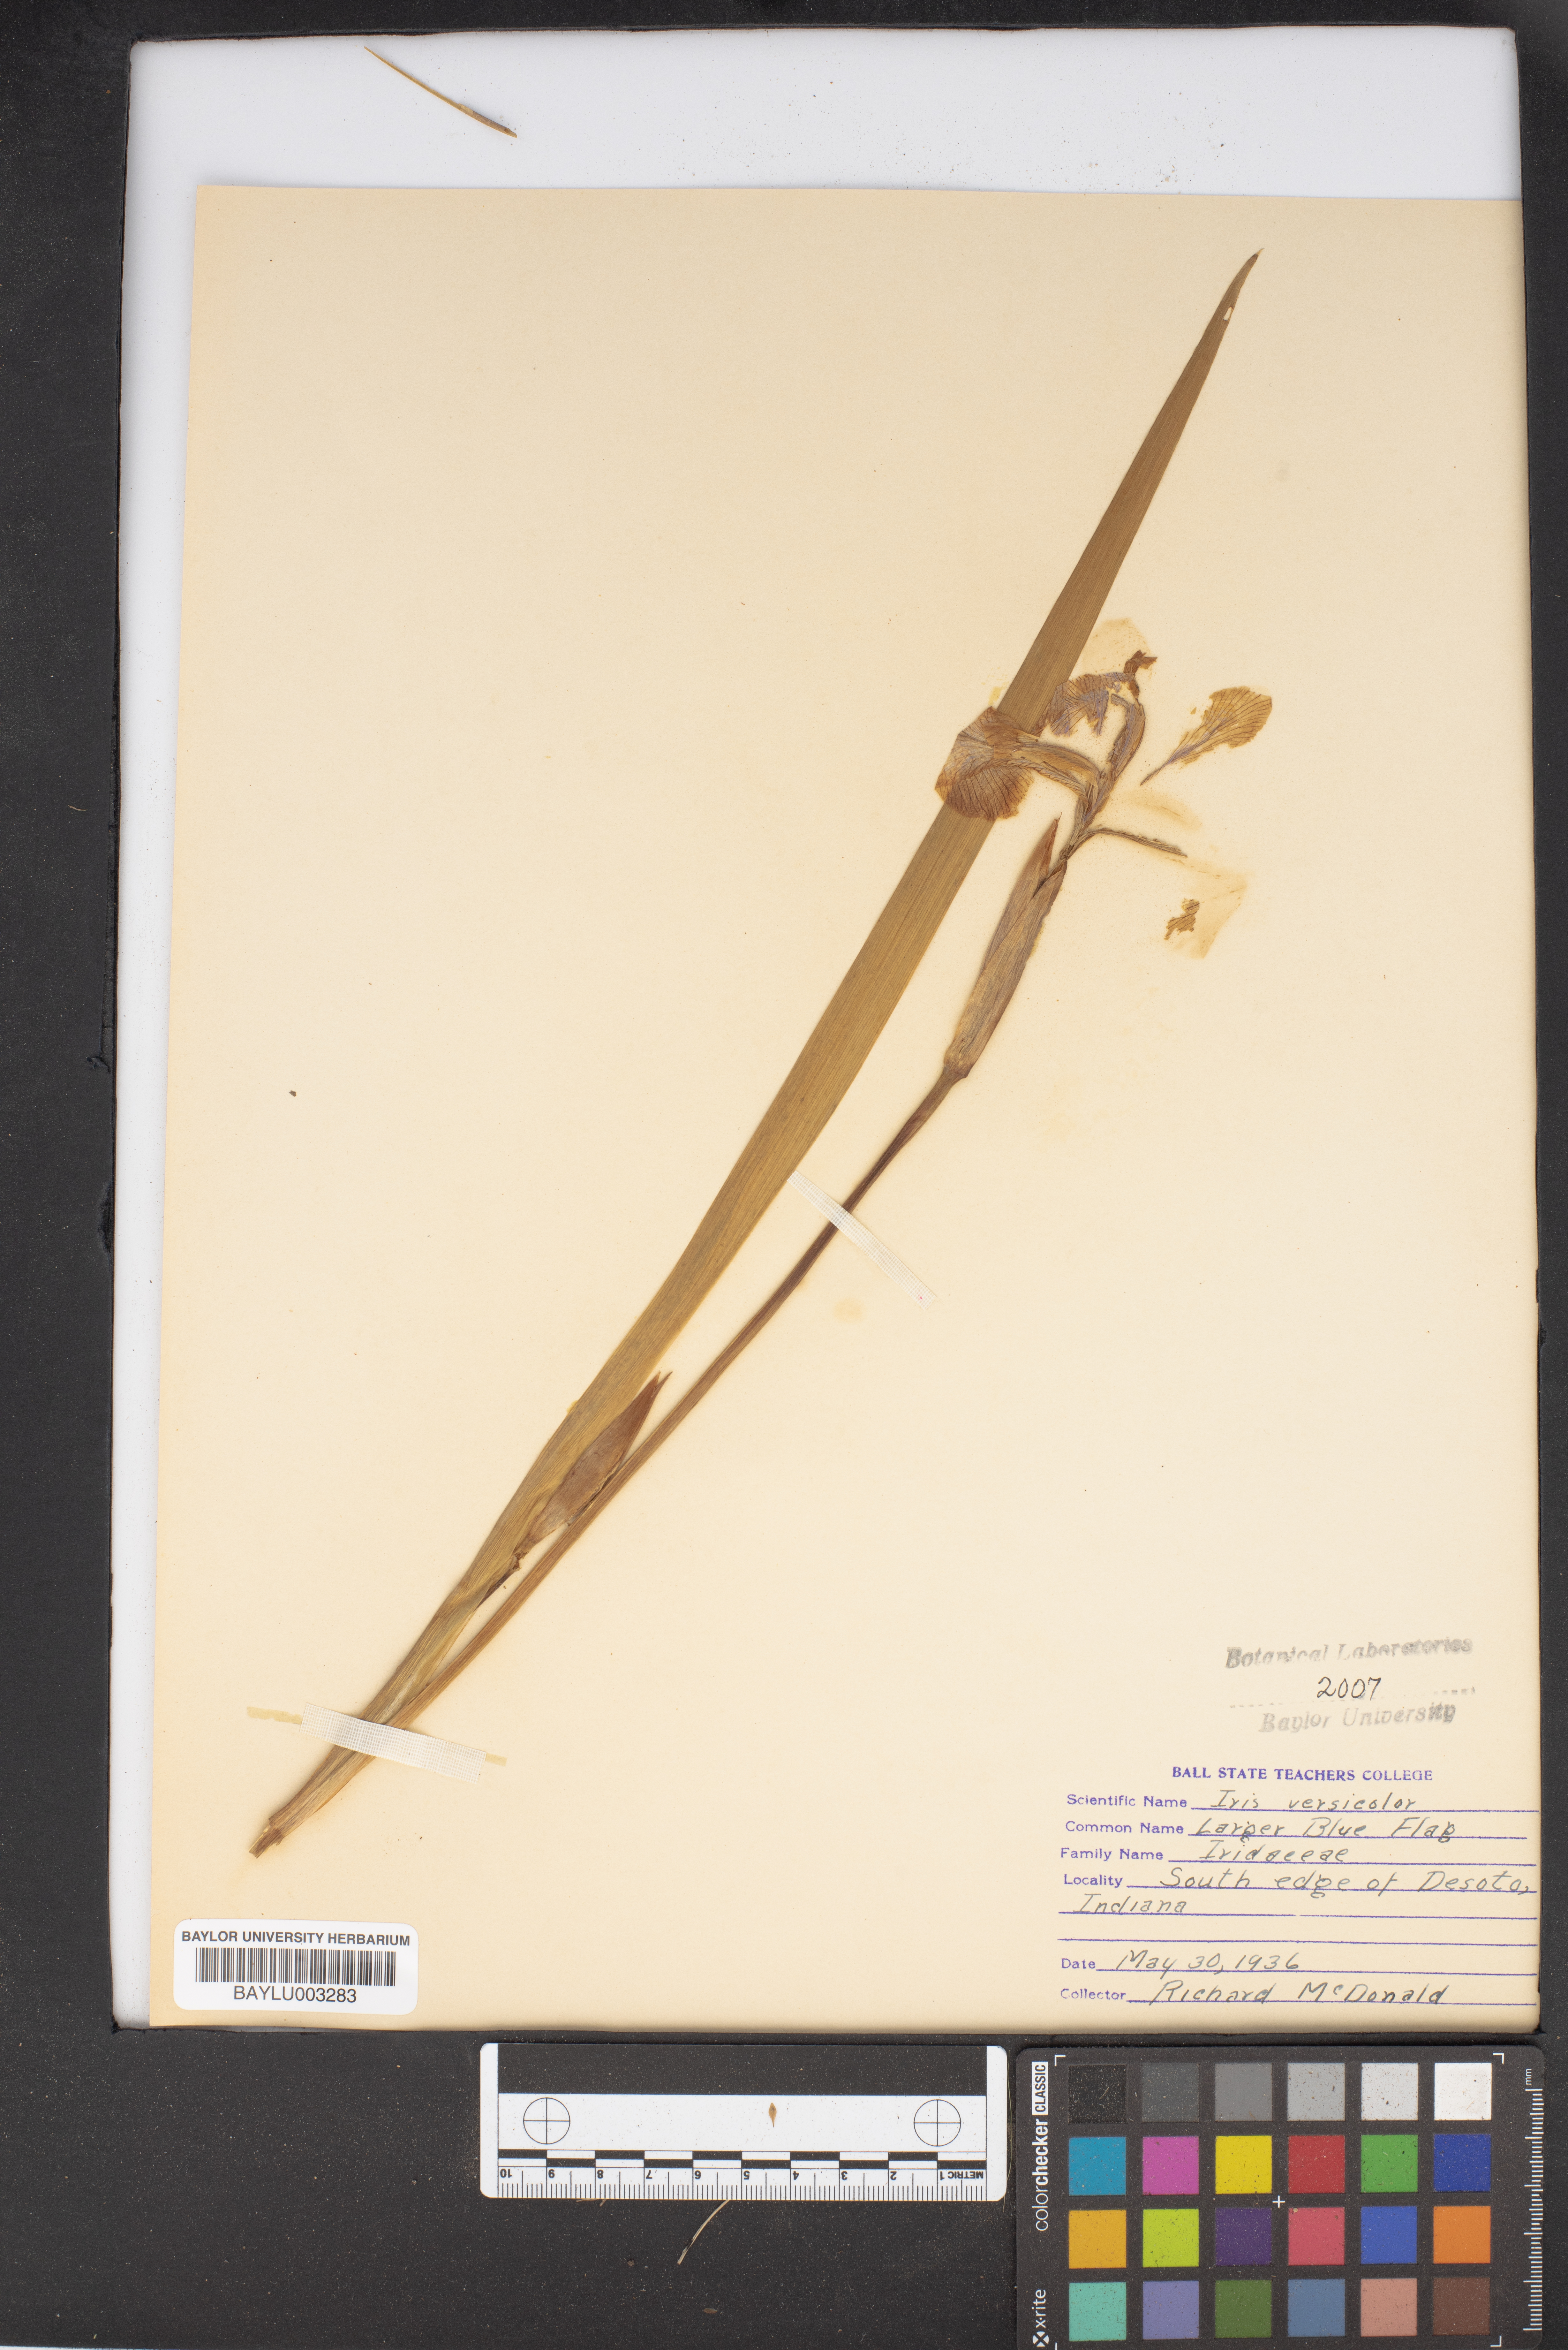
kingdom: Plantae
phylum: Tracheophyta
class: Liliopsida
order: Asparagales
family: Iridaceae
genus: Iris
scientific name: Iris versicolor
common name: Purple iris
